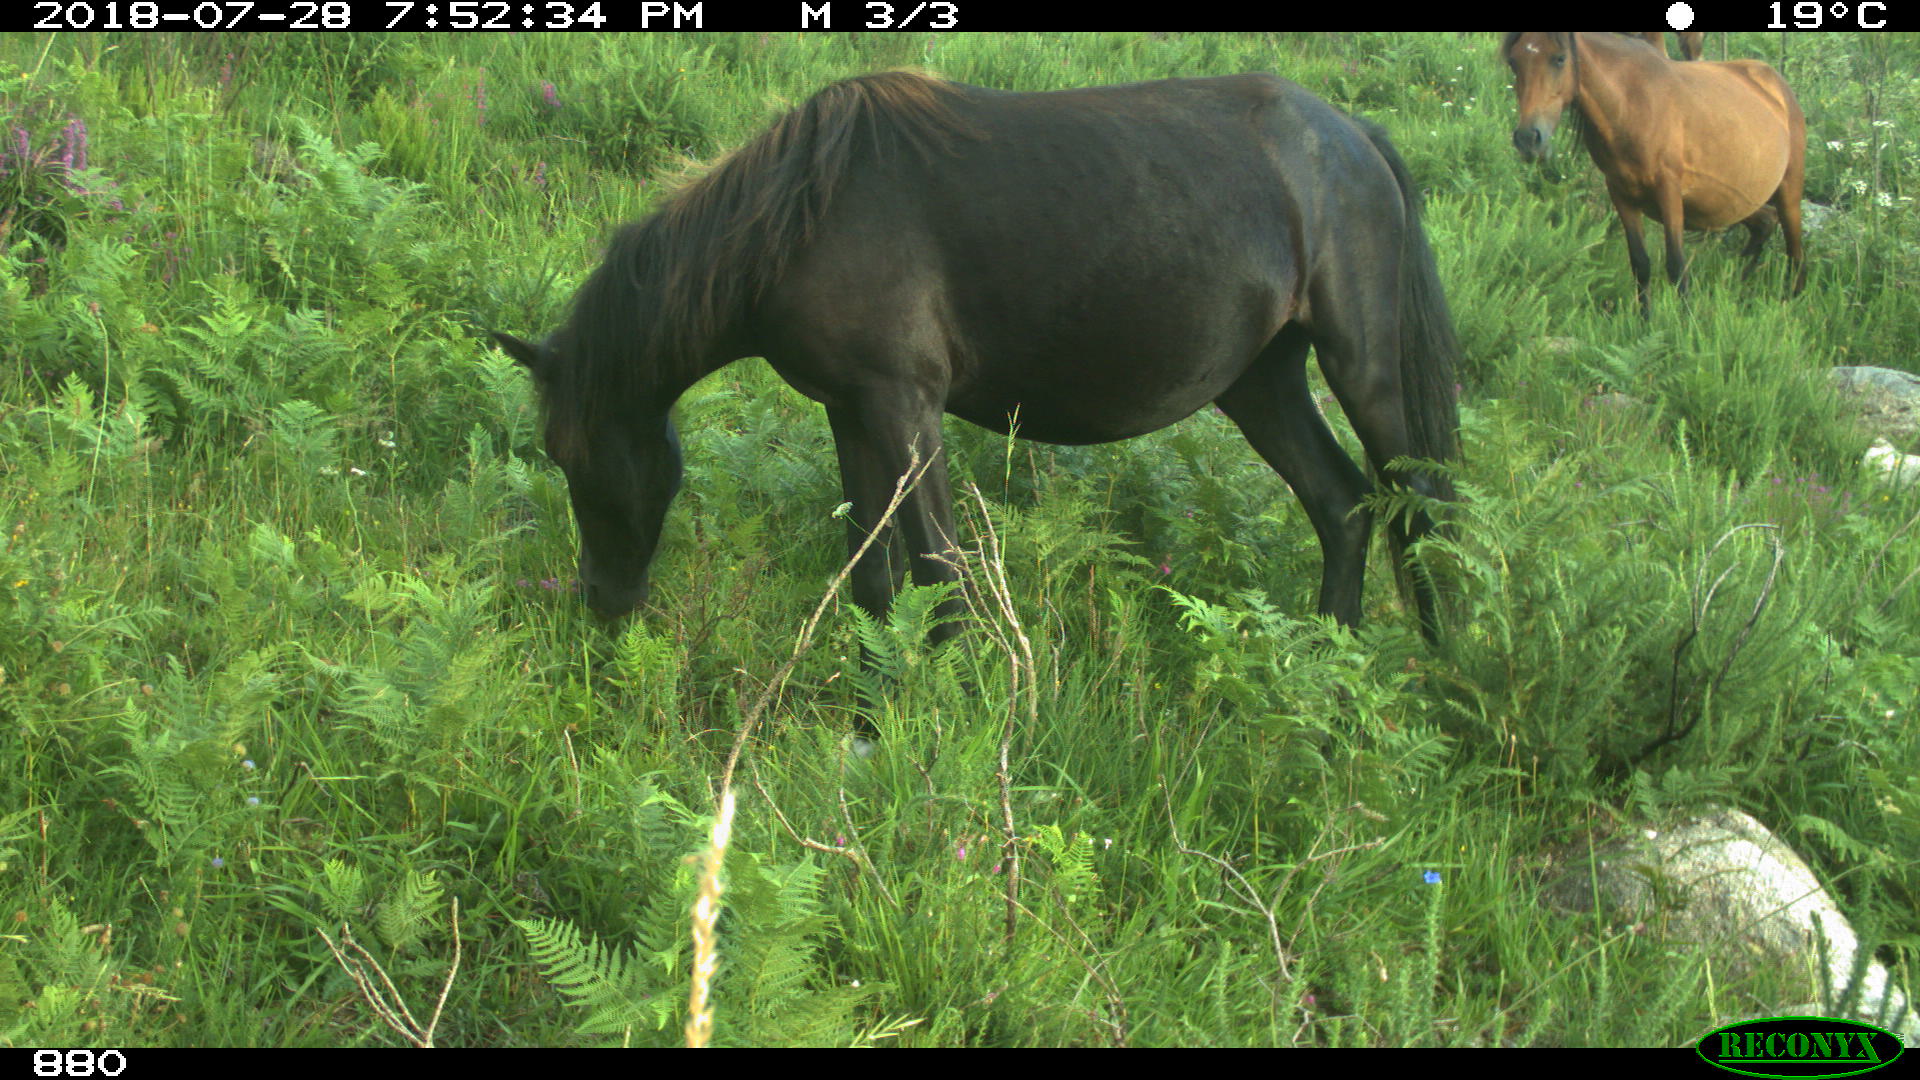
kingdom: Animalia
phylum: Chordata
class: Mammalia
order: Perissodactyla
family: Equidae
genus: Equus
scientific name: Equus caballus
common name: Horse
